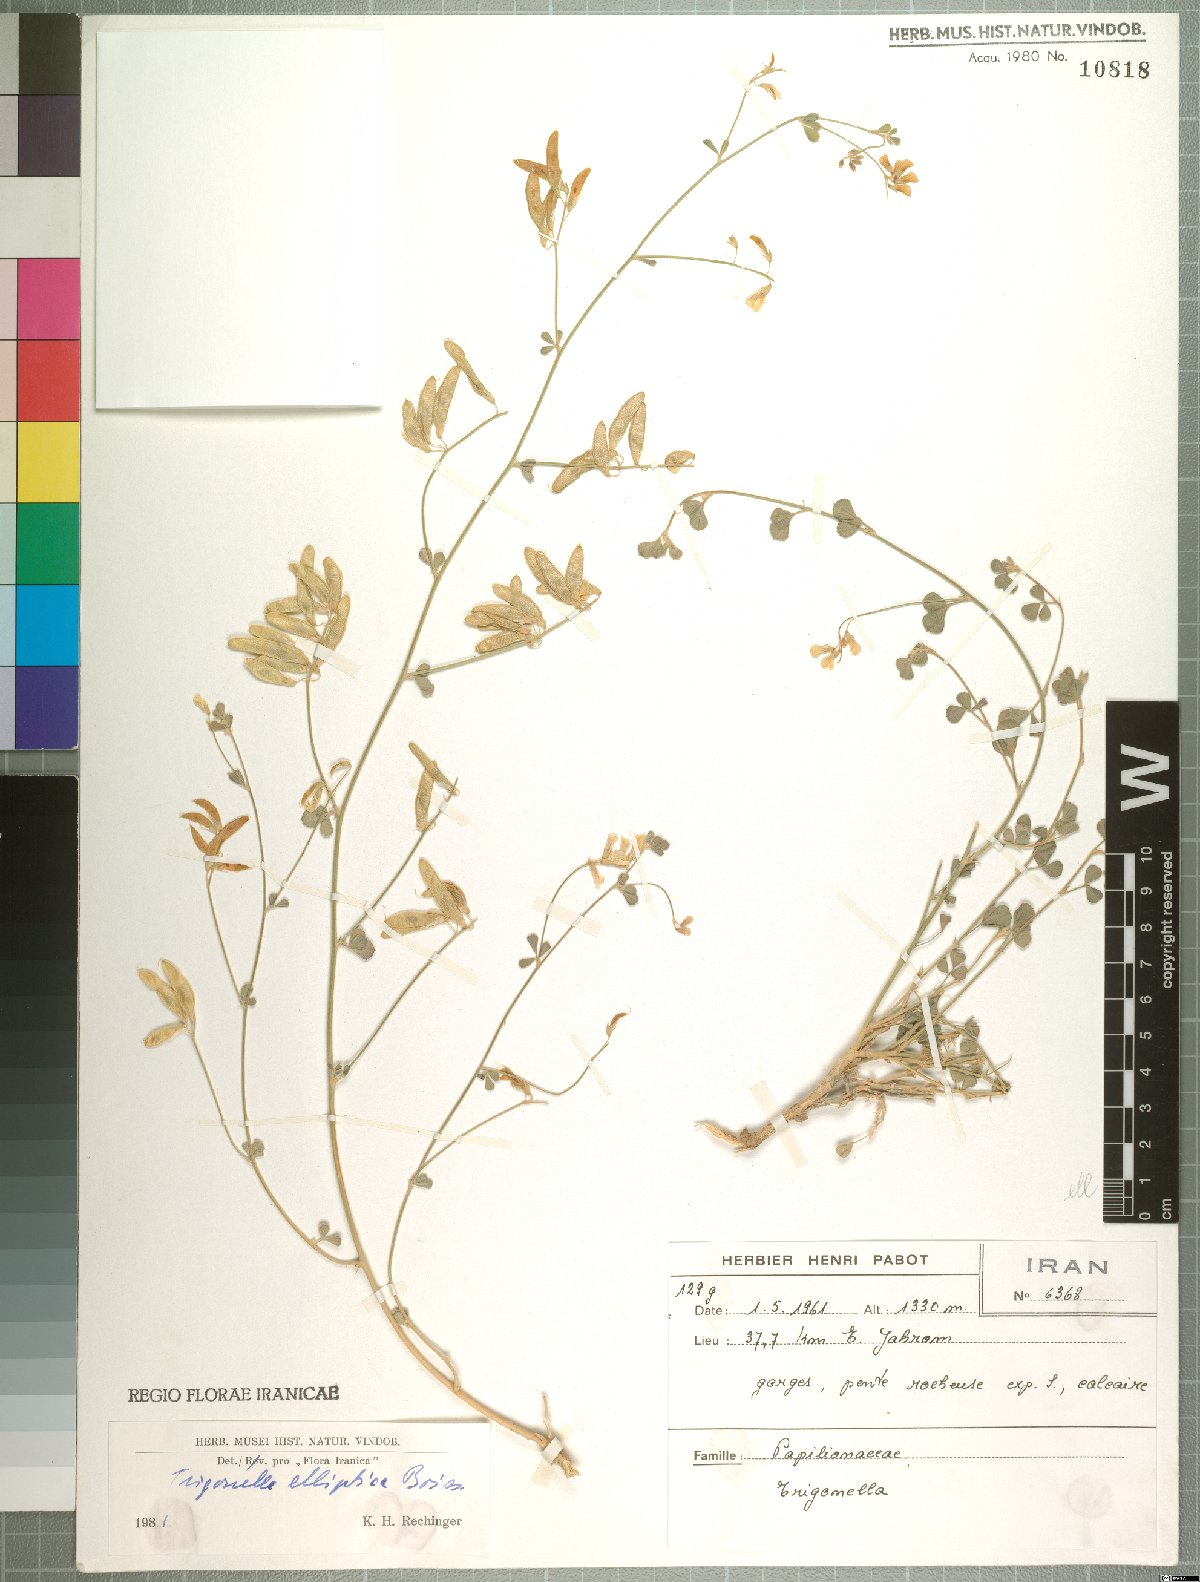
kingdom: Plantae
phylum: Tracheophyta
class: Magnoliopsida
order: Fabales
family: Fabaceae
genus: Trigonella
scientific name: Trigonella elliptica
